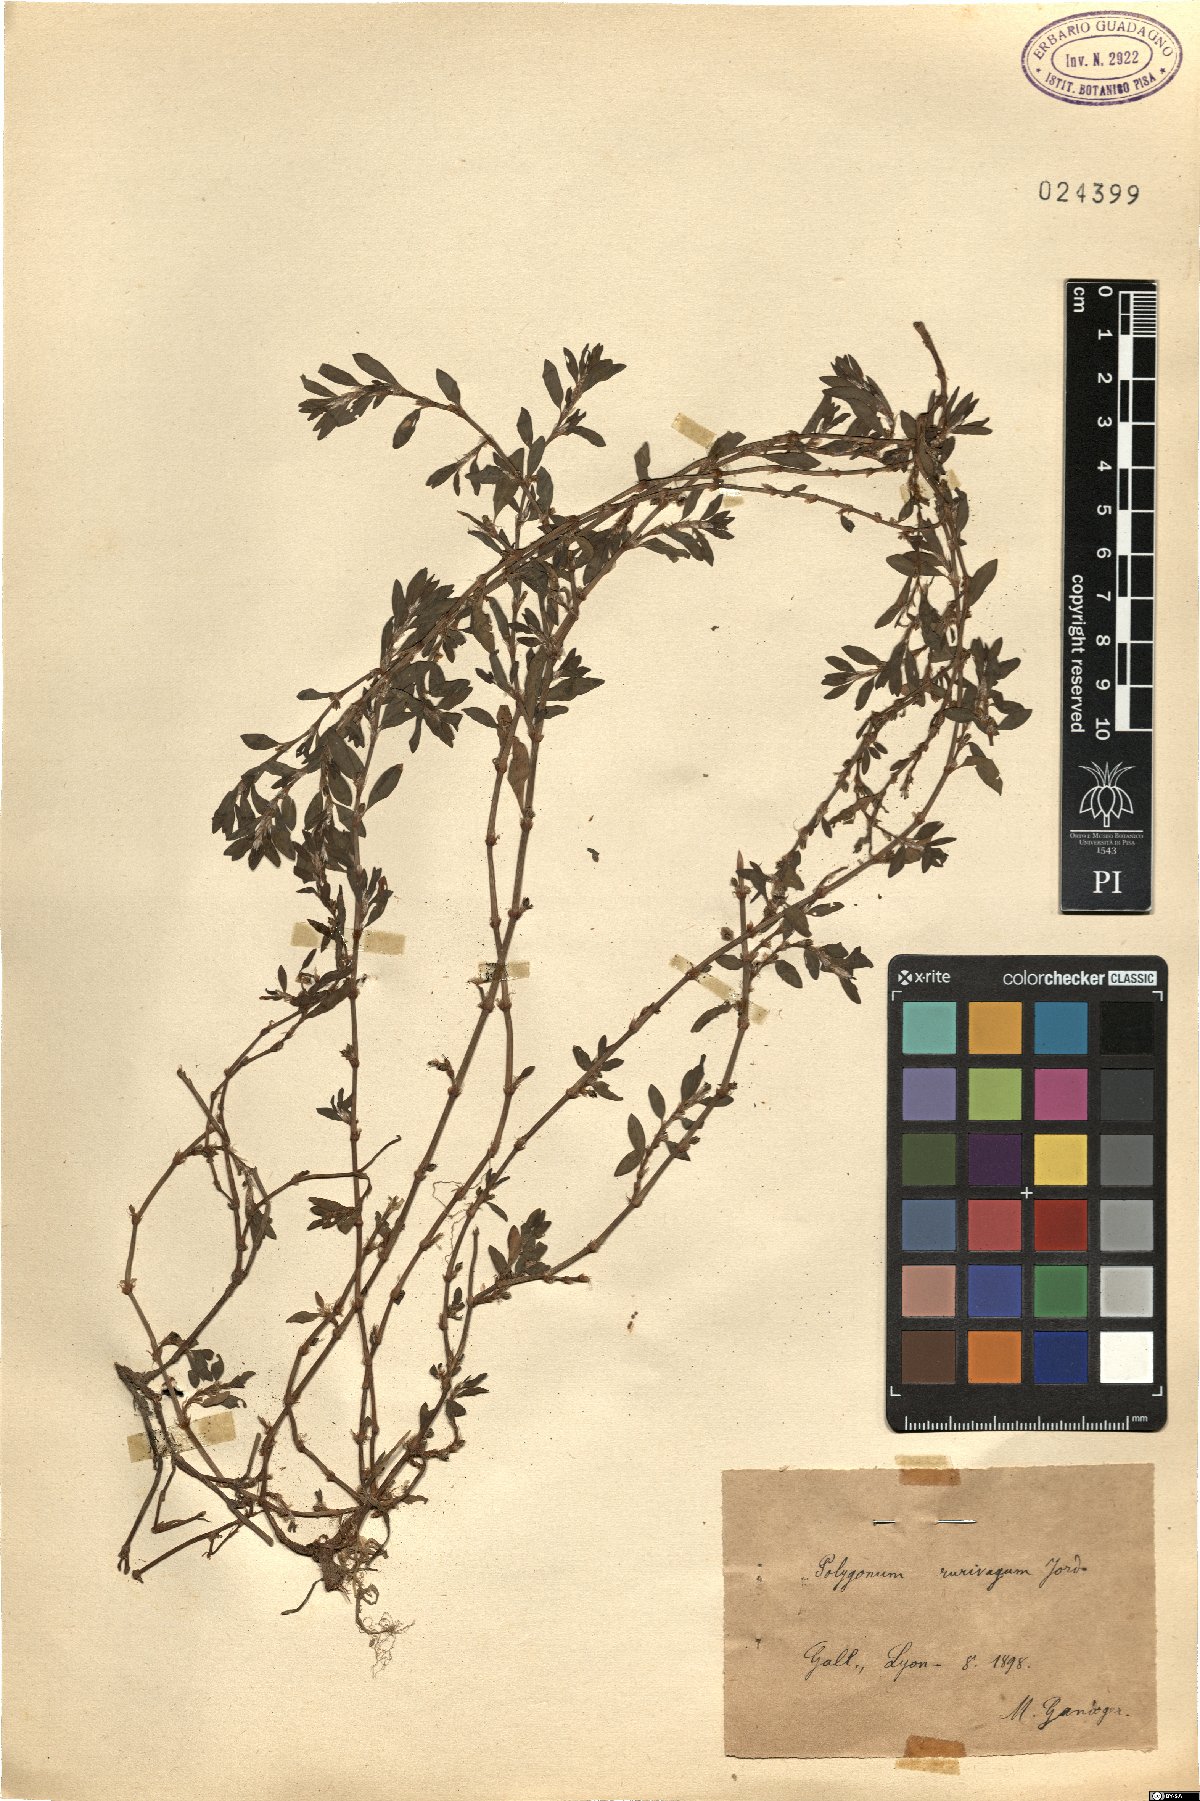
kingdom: Plantae
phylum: Tracheophyta
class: Magnoliopsida
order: Caryophyllales
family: Polygonaceae
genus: Polygonum
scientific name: Polygonum aviculare
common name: Prostrate knotweed
